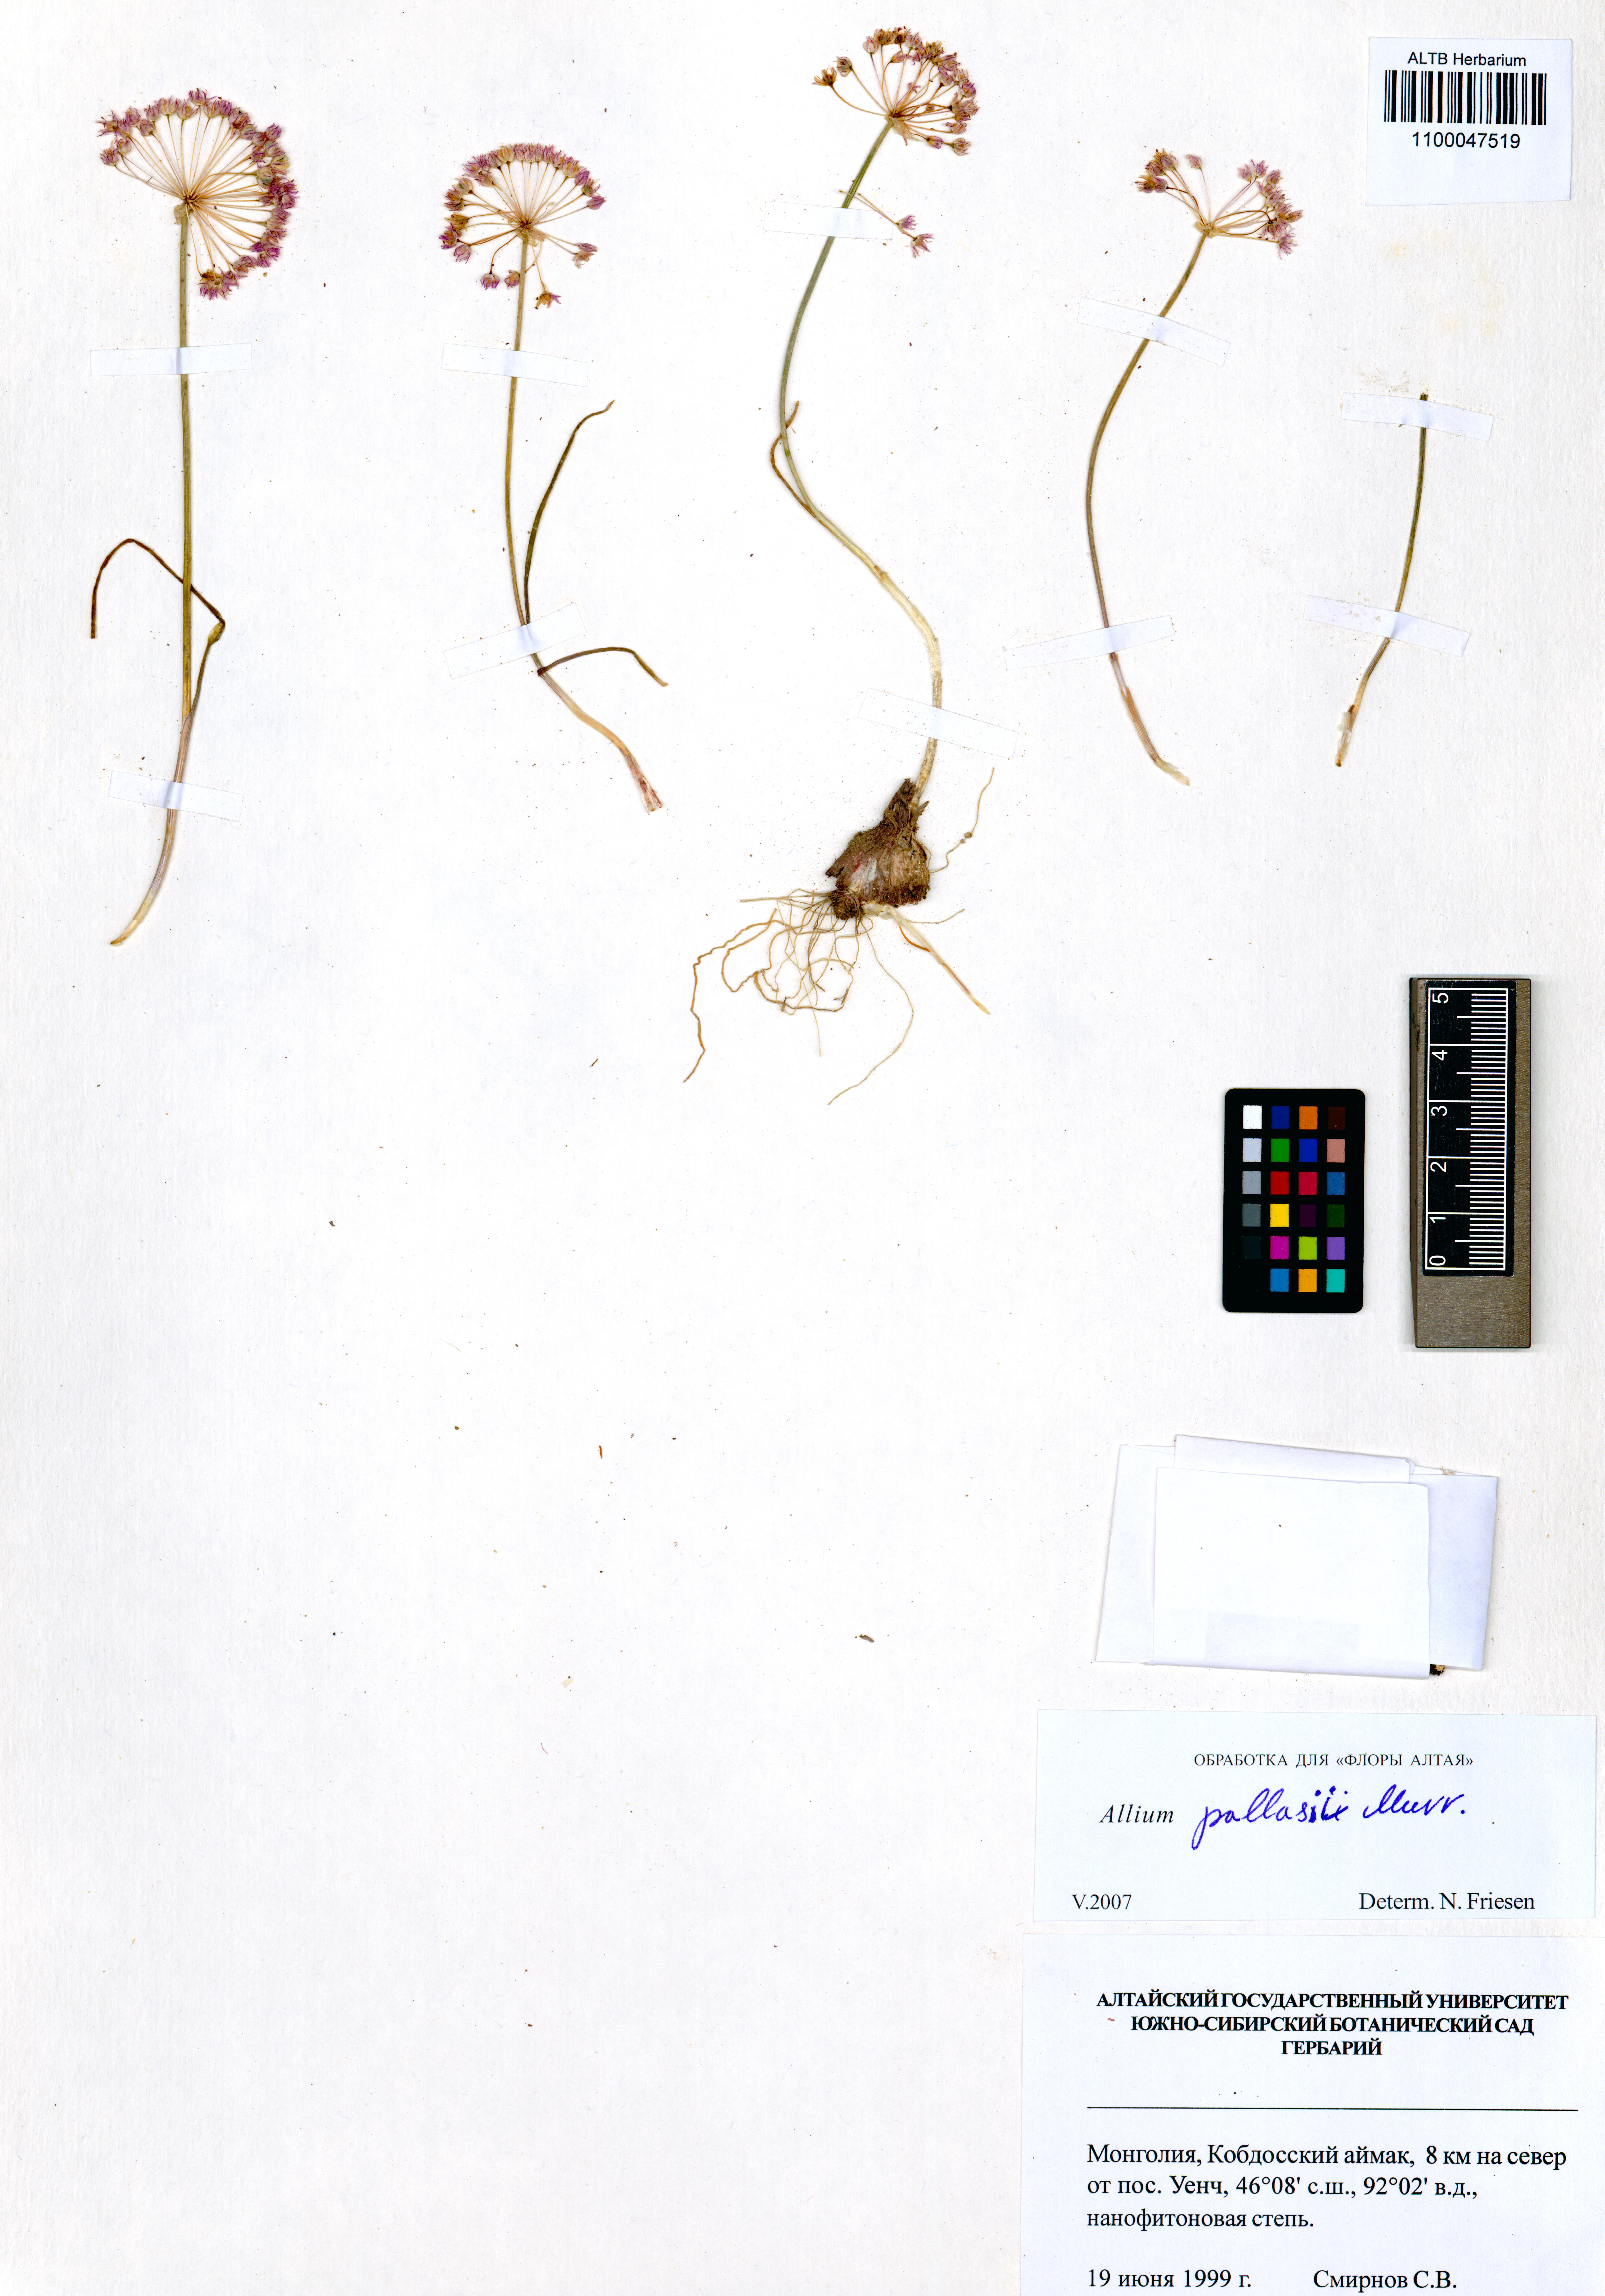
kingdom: Plantae
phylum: Tracheophyta
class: Liliopsida
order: Asparagales
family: Amaryllidaceae
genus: Allium
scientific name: Allium pallasii
